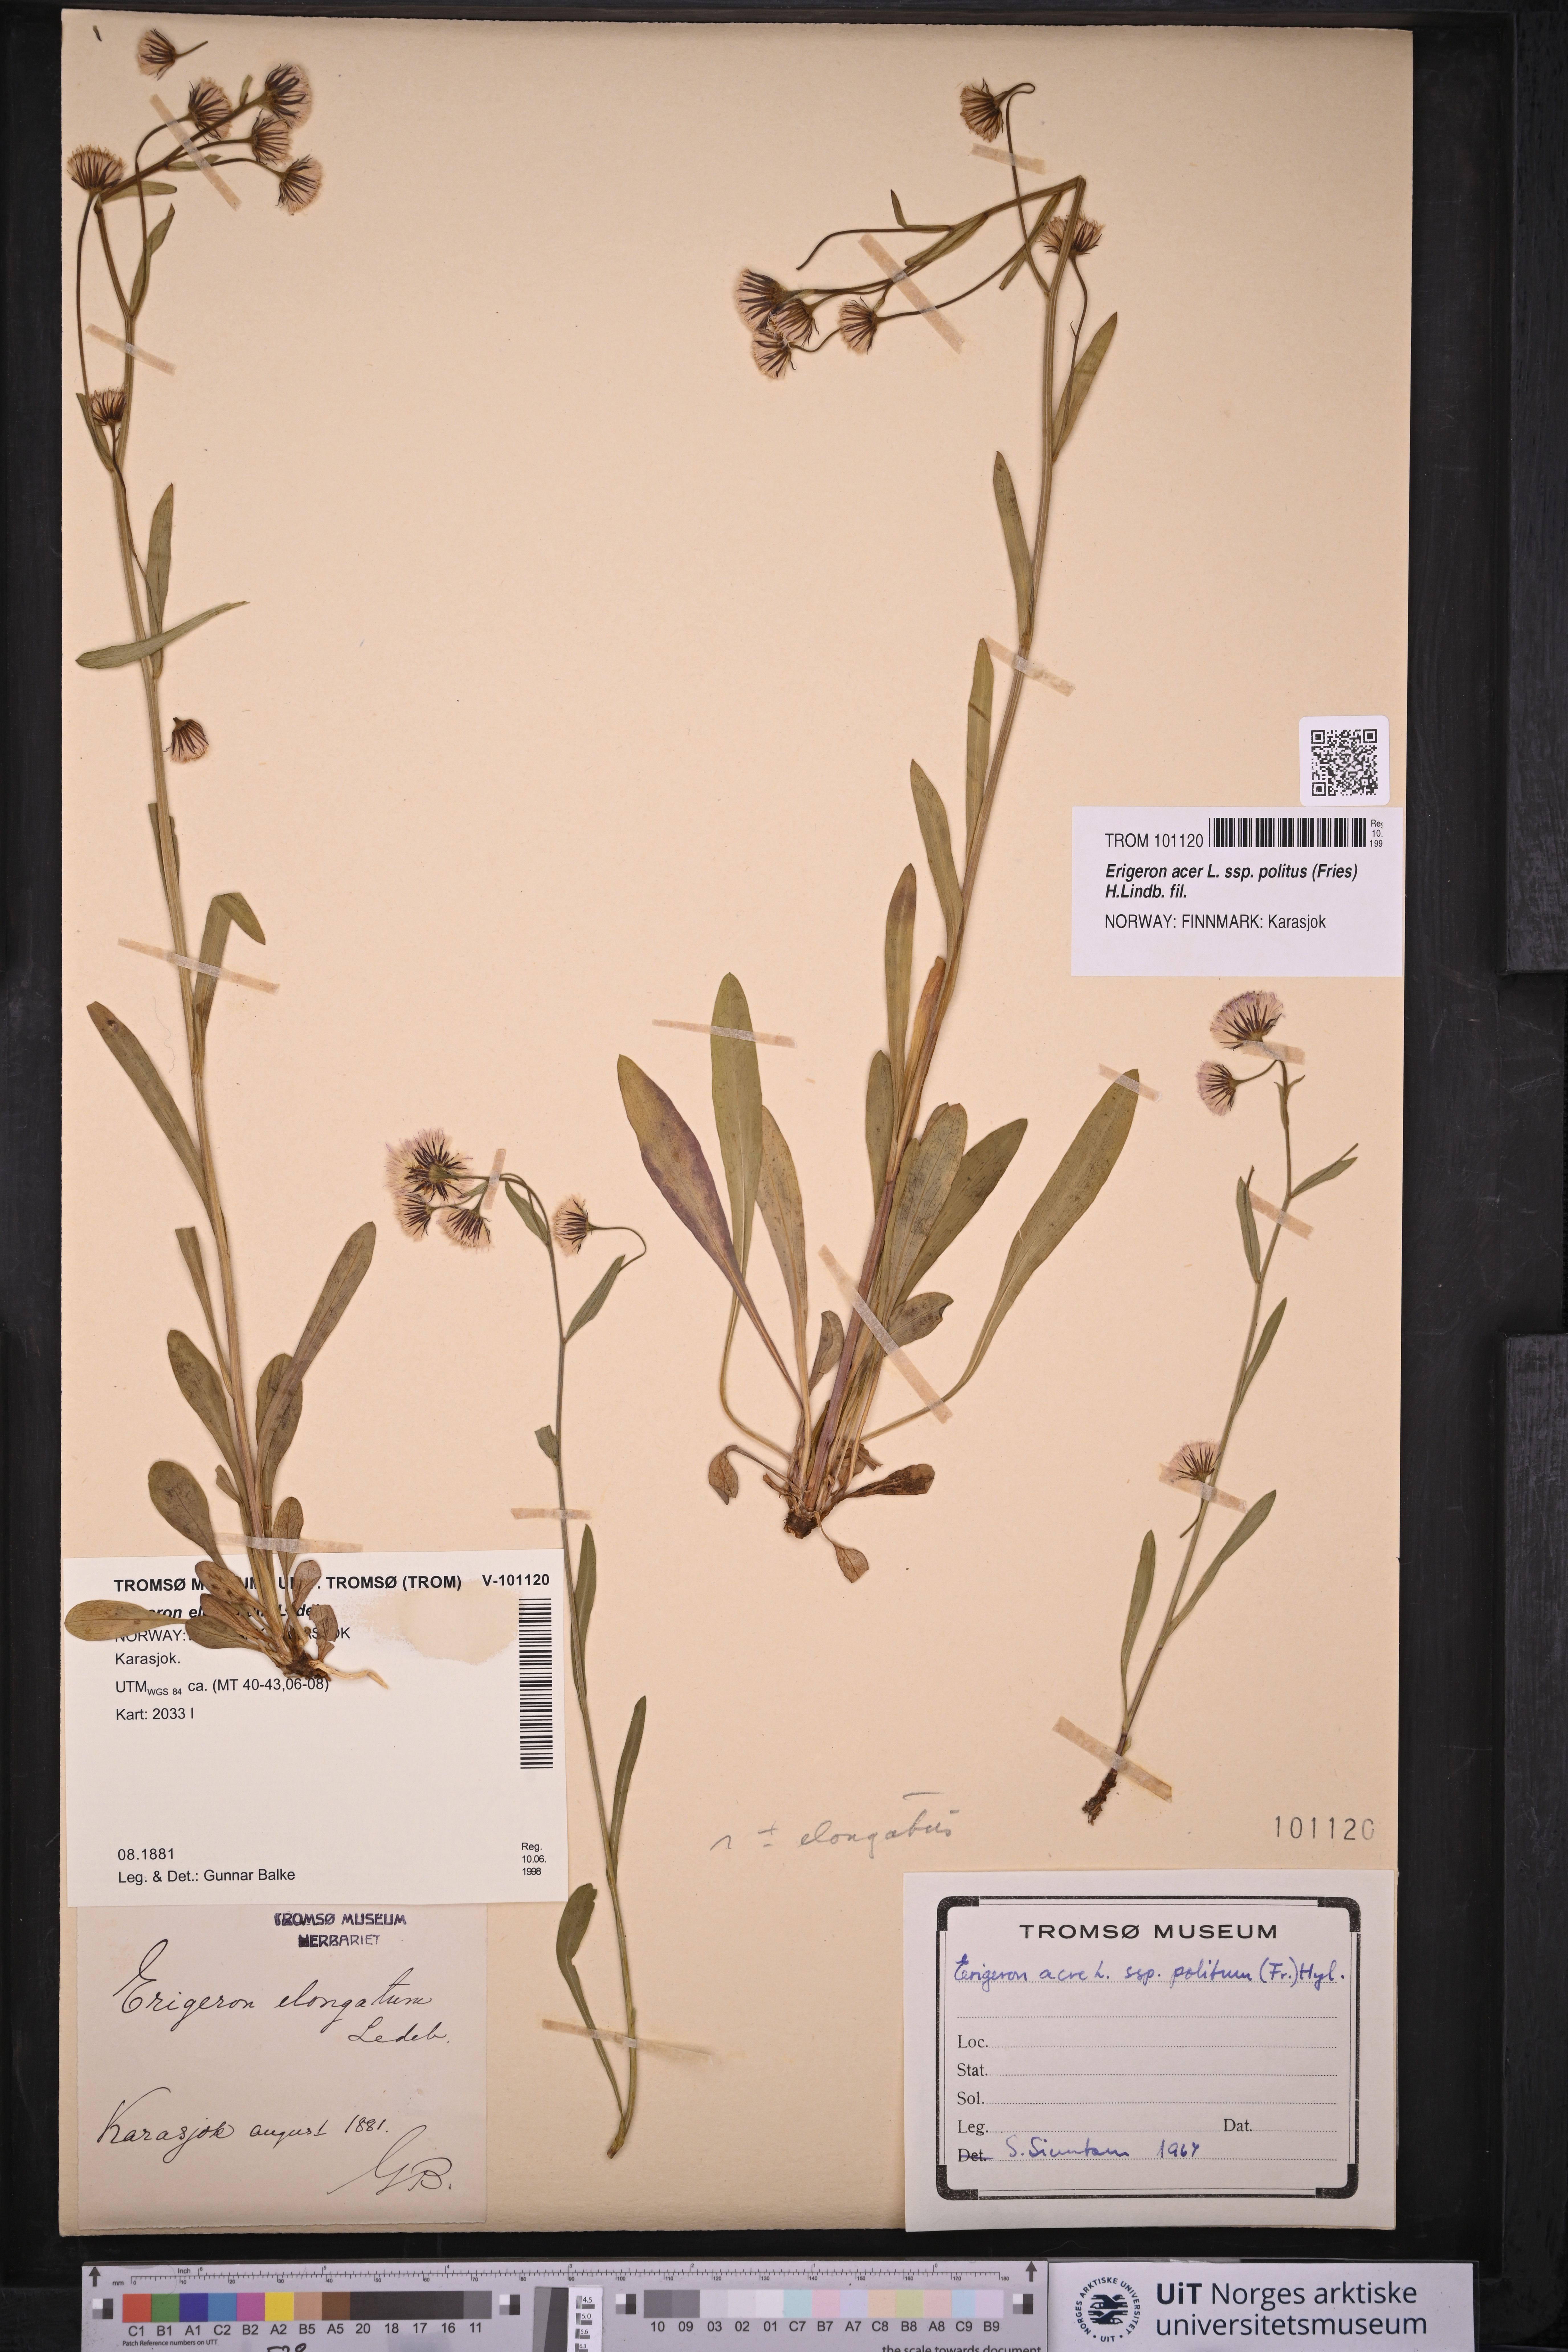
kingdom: Plantae
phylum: Tracheophyta
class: Magnoliopsida
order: Asterales
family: Asteraceae
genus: Erigeron
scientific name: Erigeron politus
